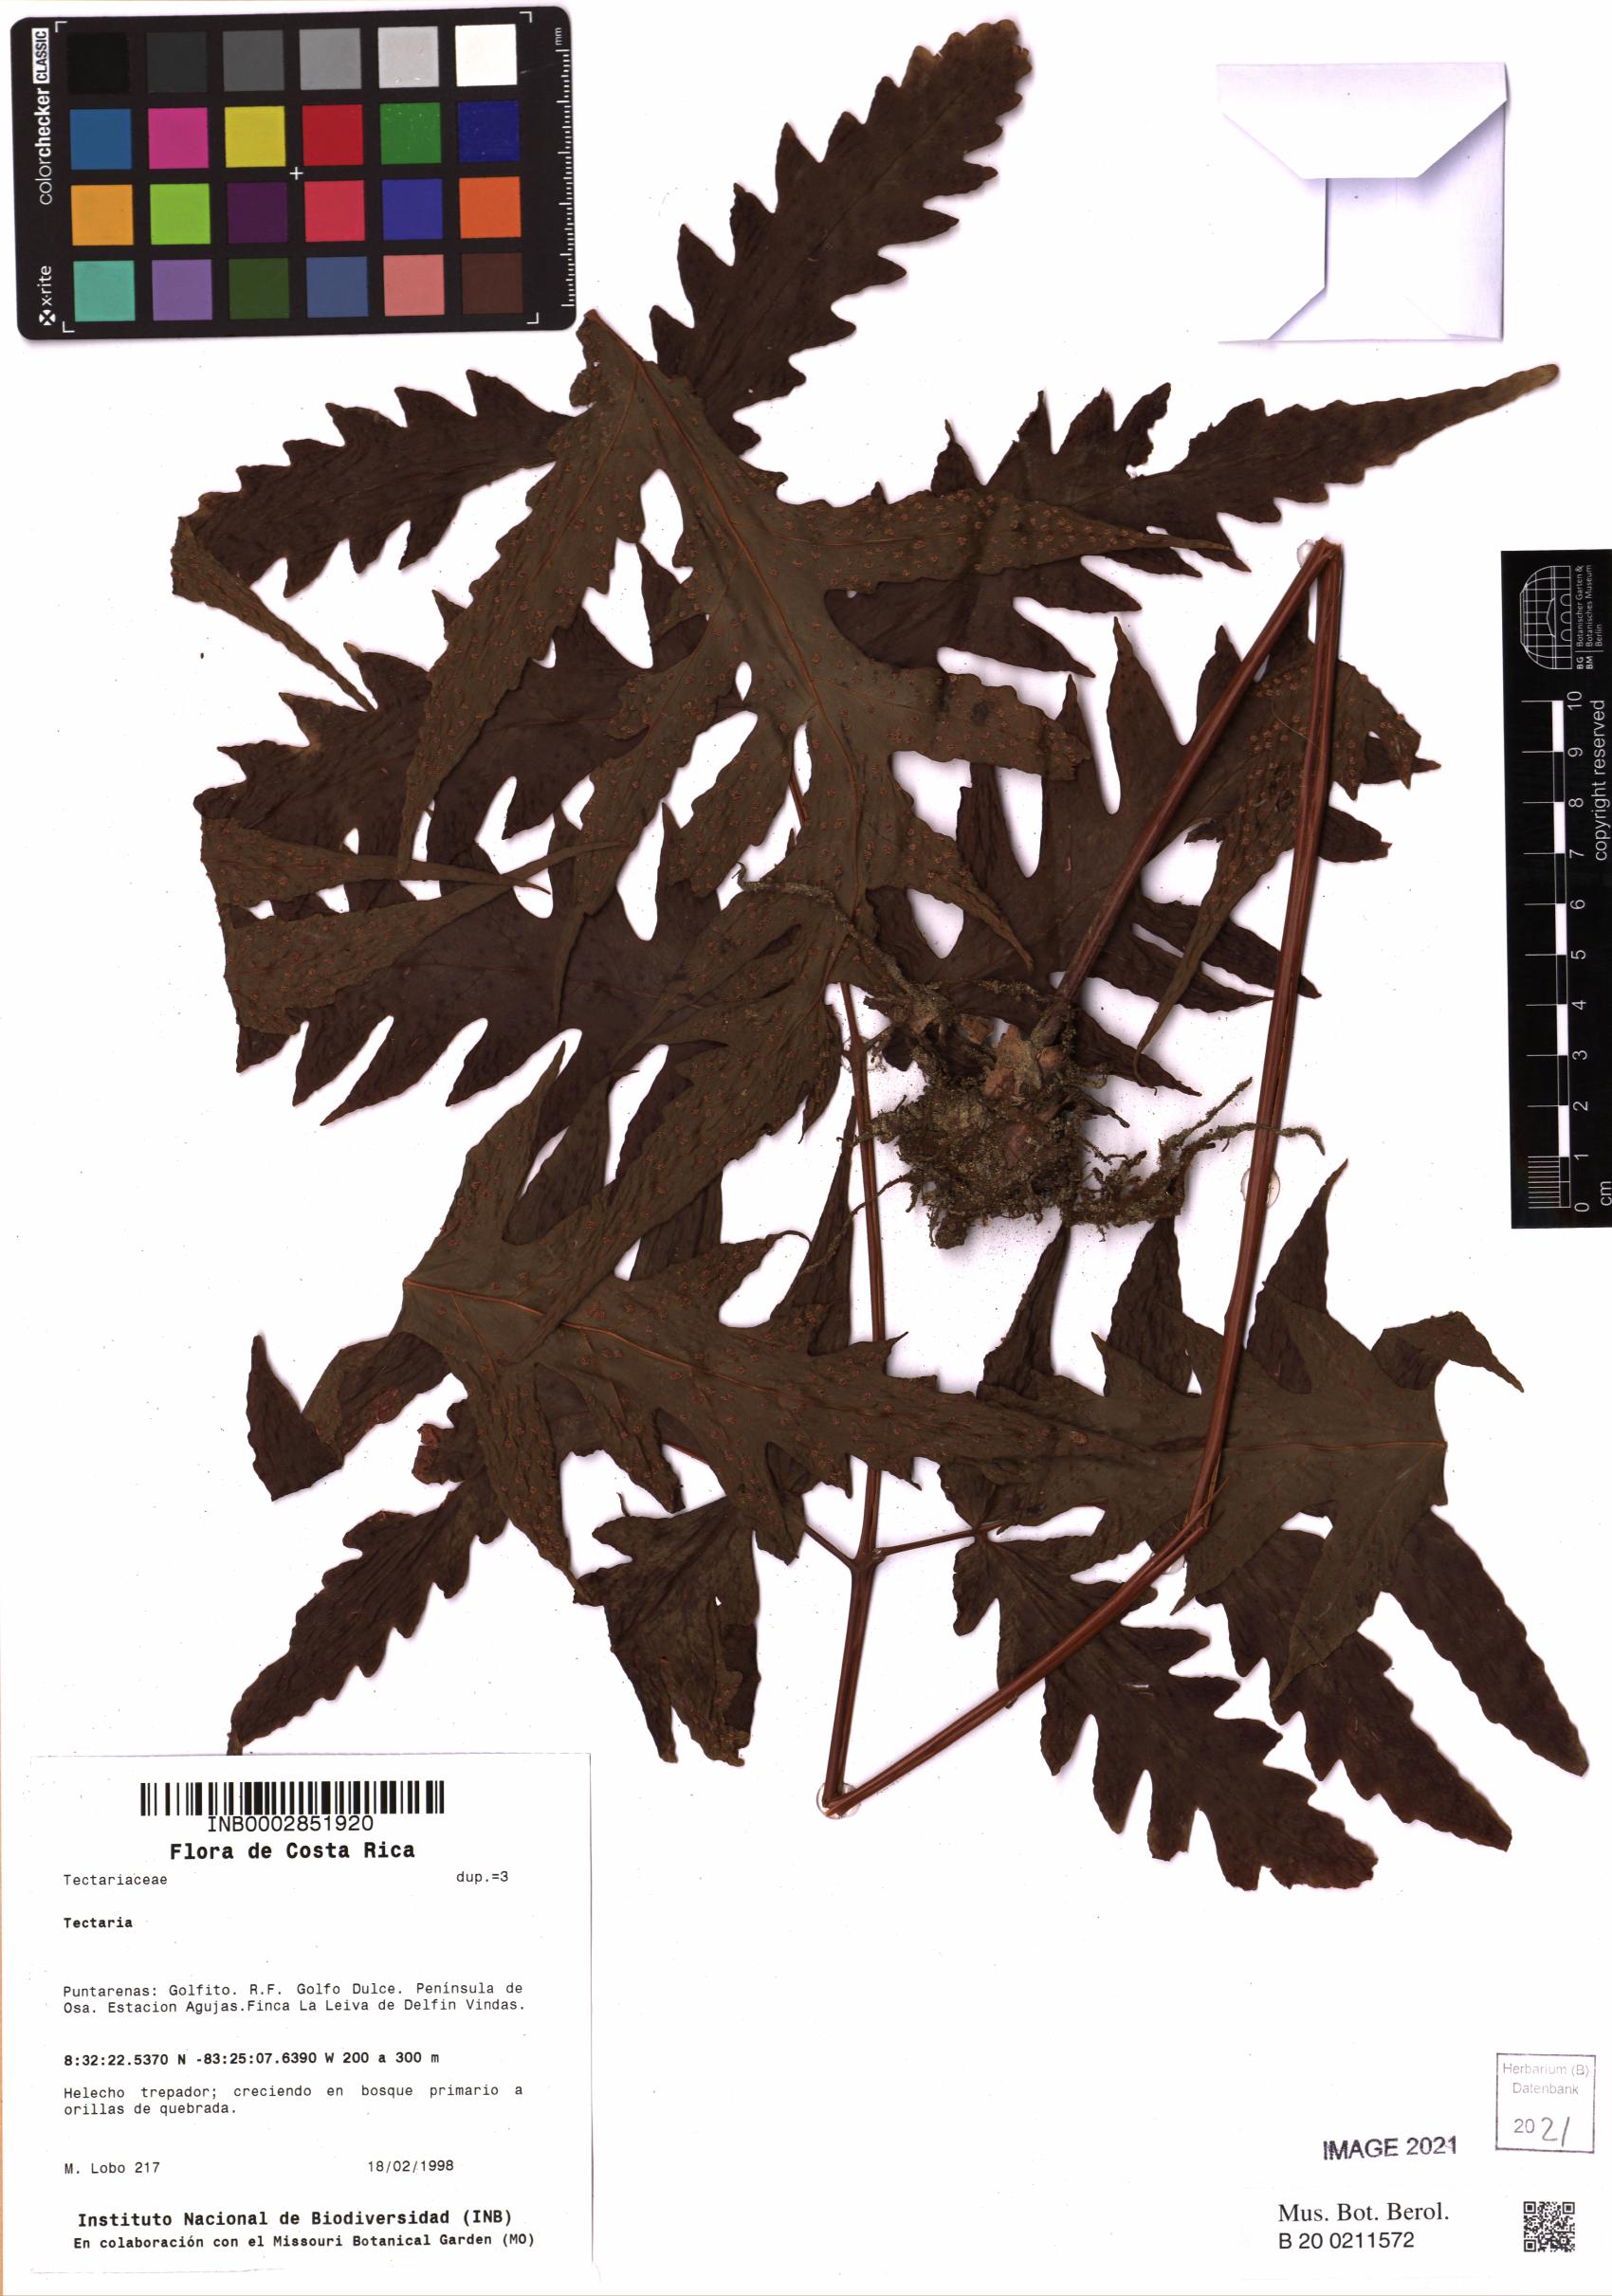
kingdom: Plantae
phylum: Tracheophyta
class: Polypodiopsida
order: Polypodiales
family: Tectariaceae
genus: Tectaria
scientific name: Tectaria
